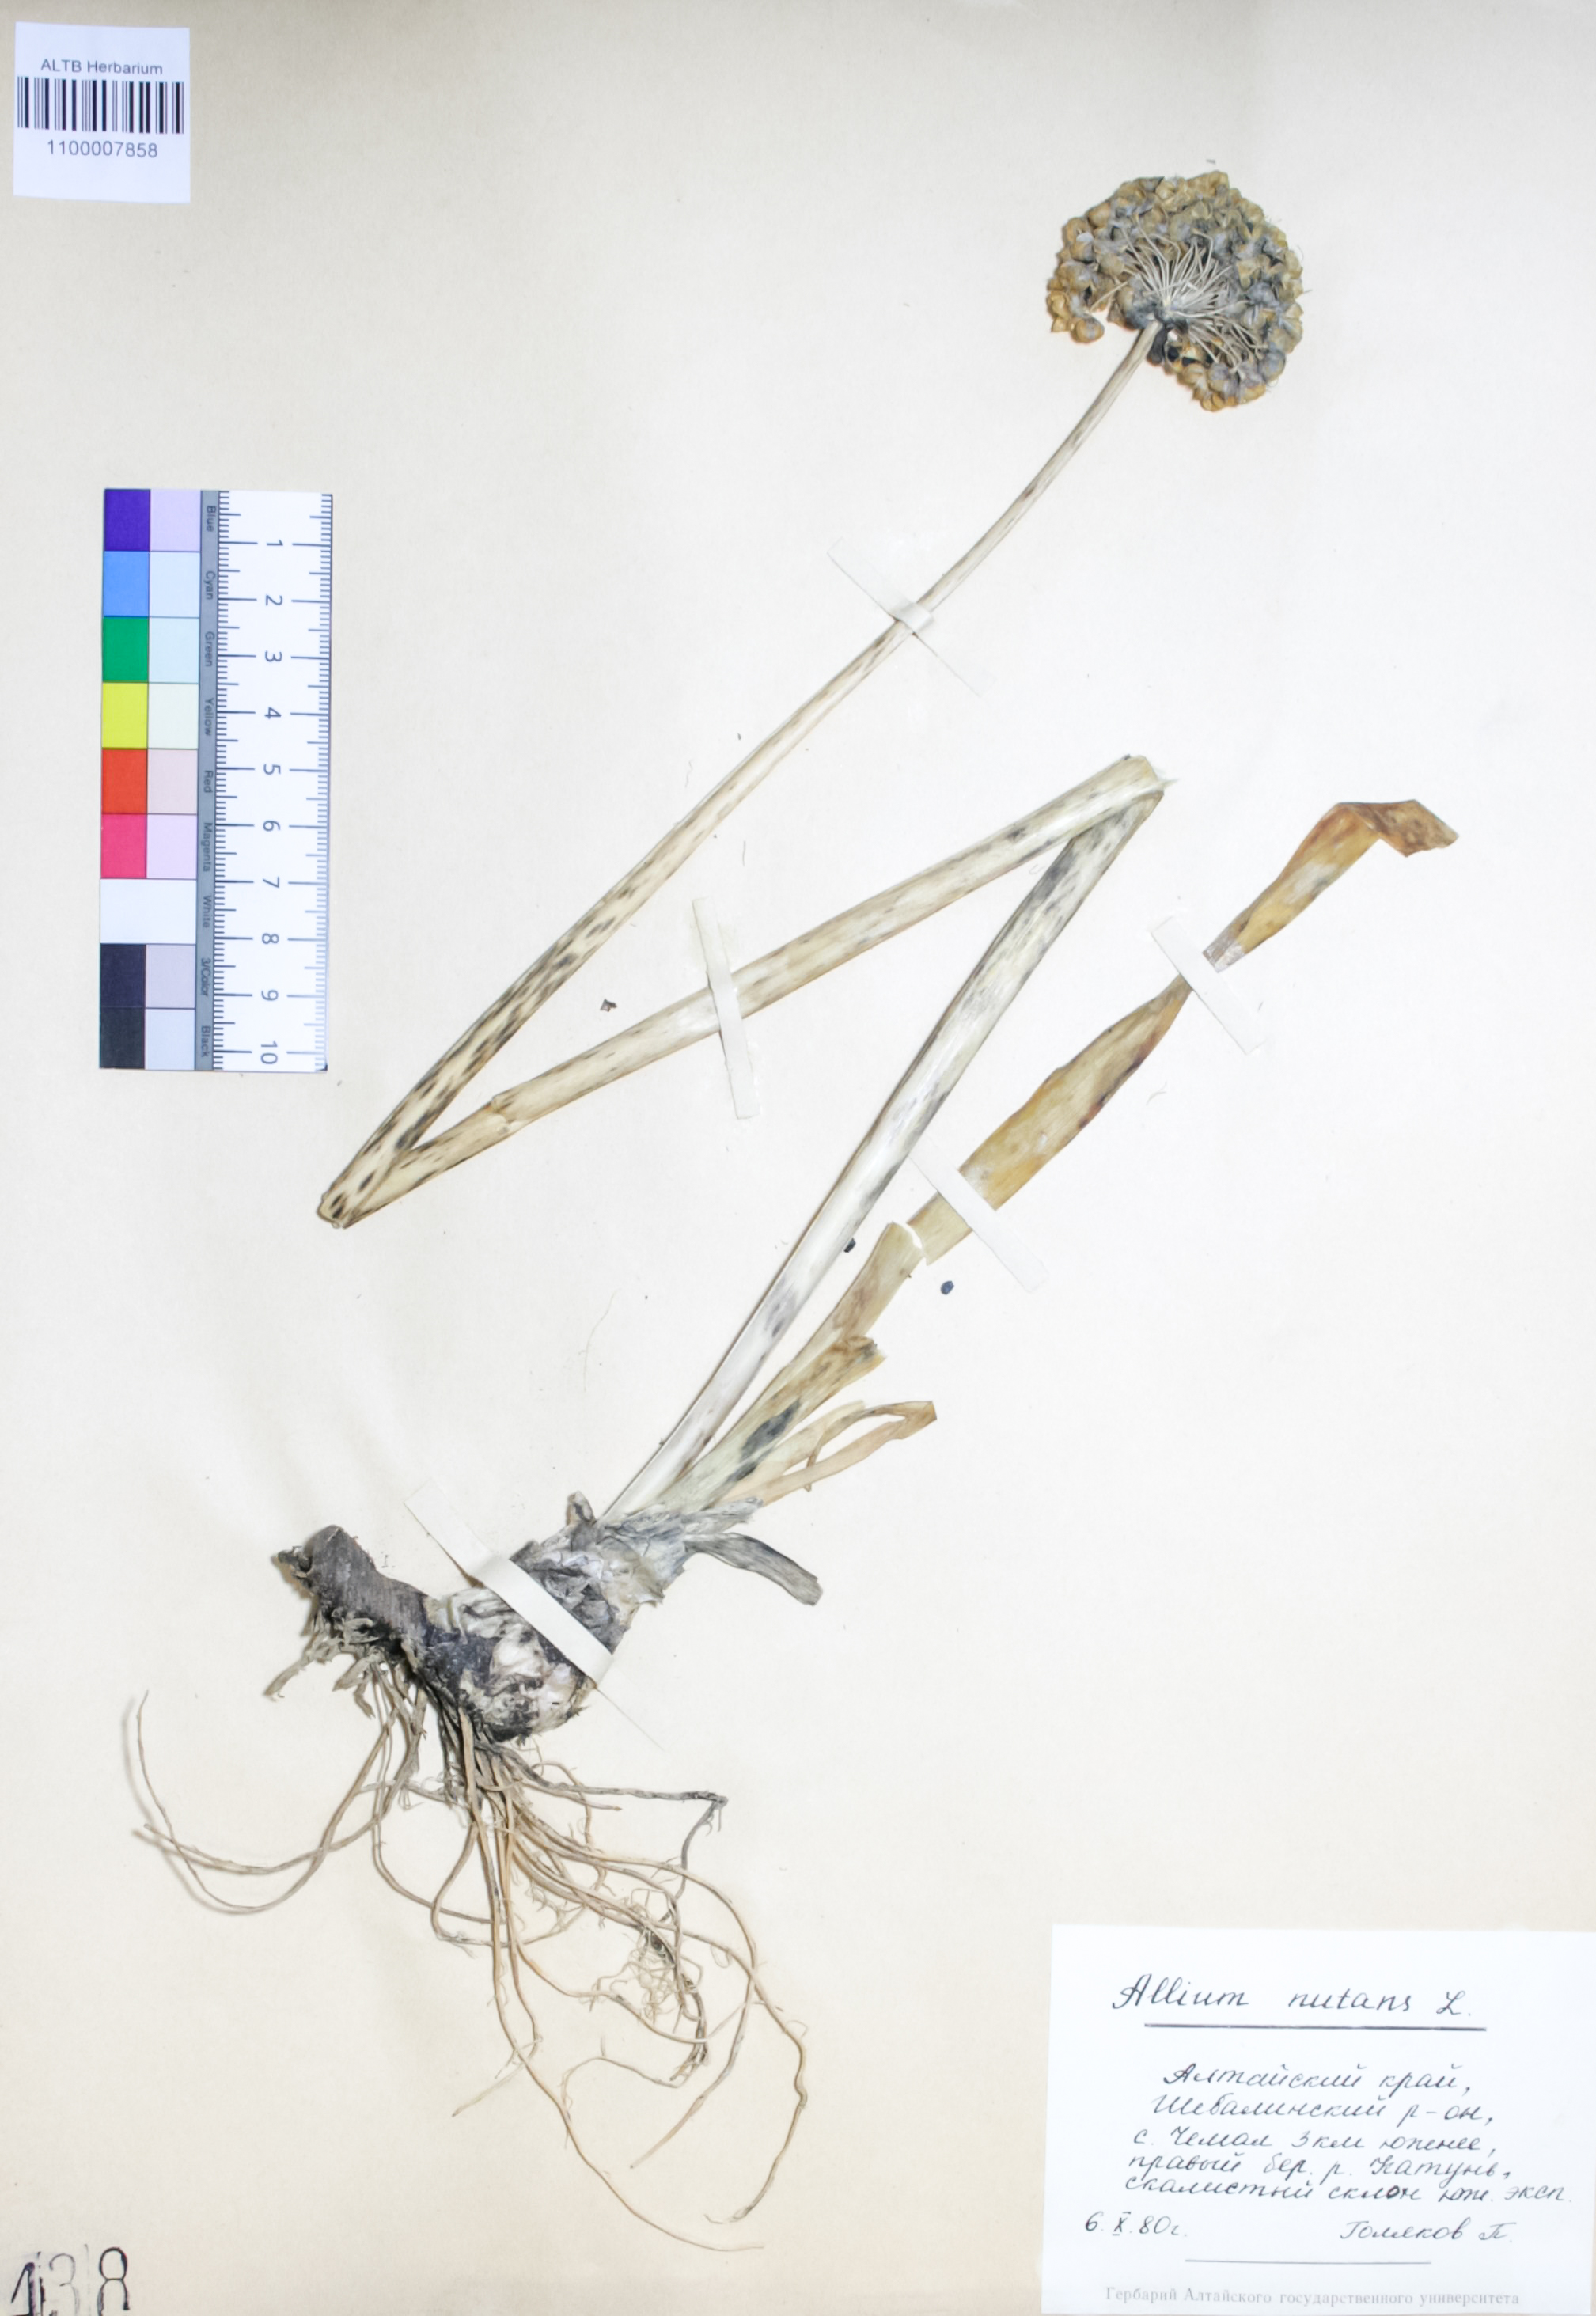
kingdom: Plantae
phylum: Tracheophyta
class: Liliopsida
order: Asparagales
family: Amaryllidaceae
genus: Allium
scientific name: Allium nutans
